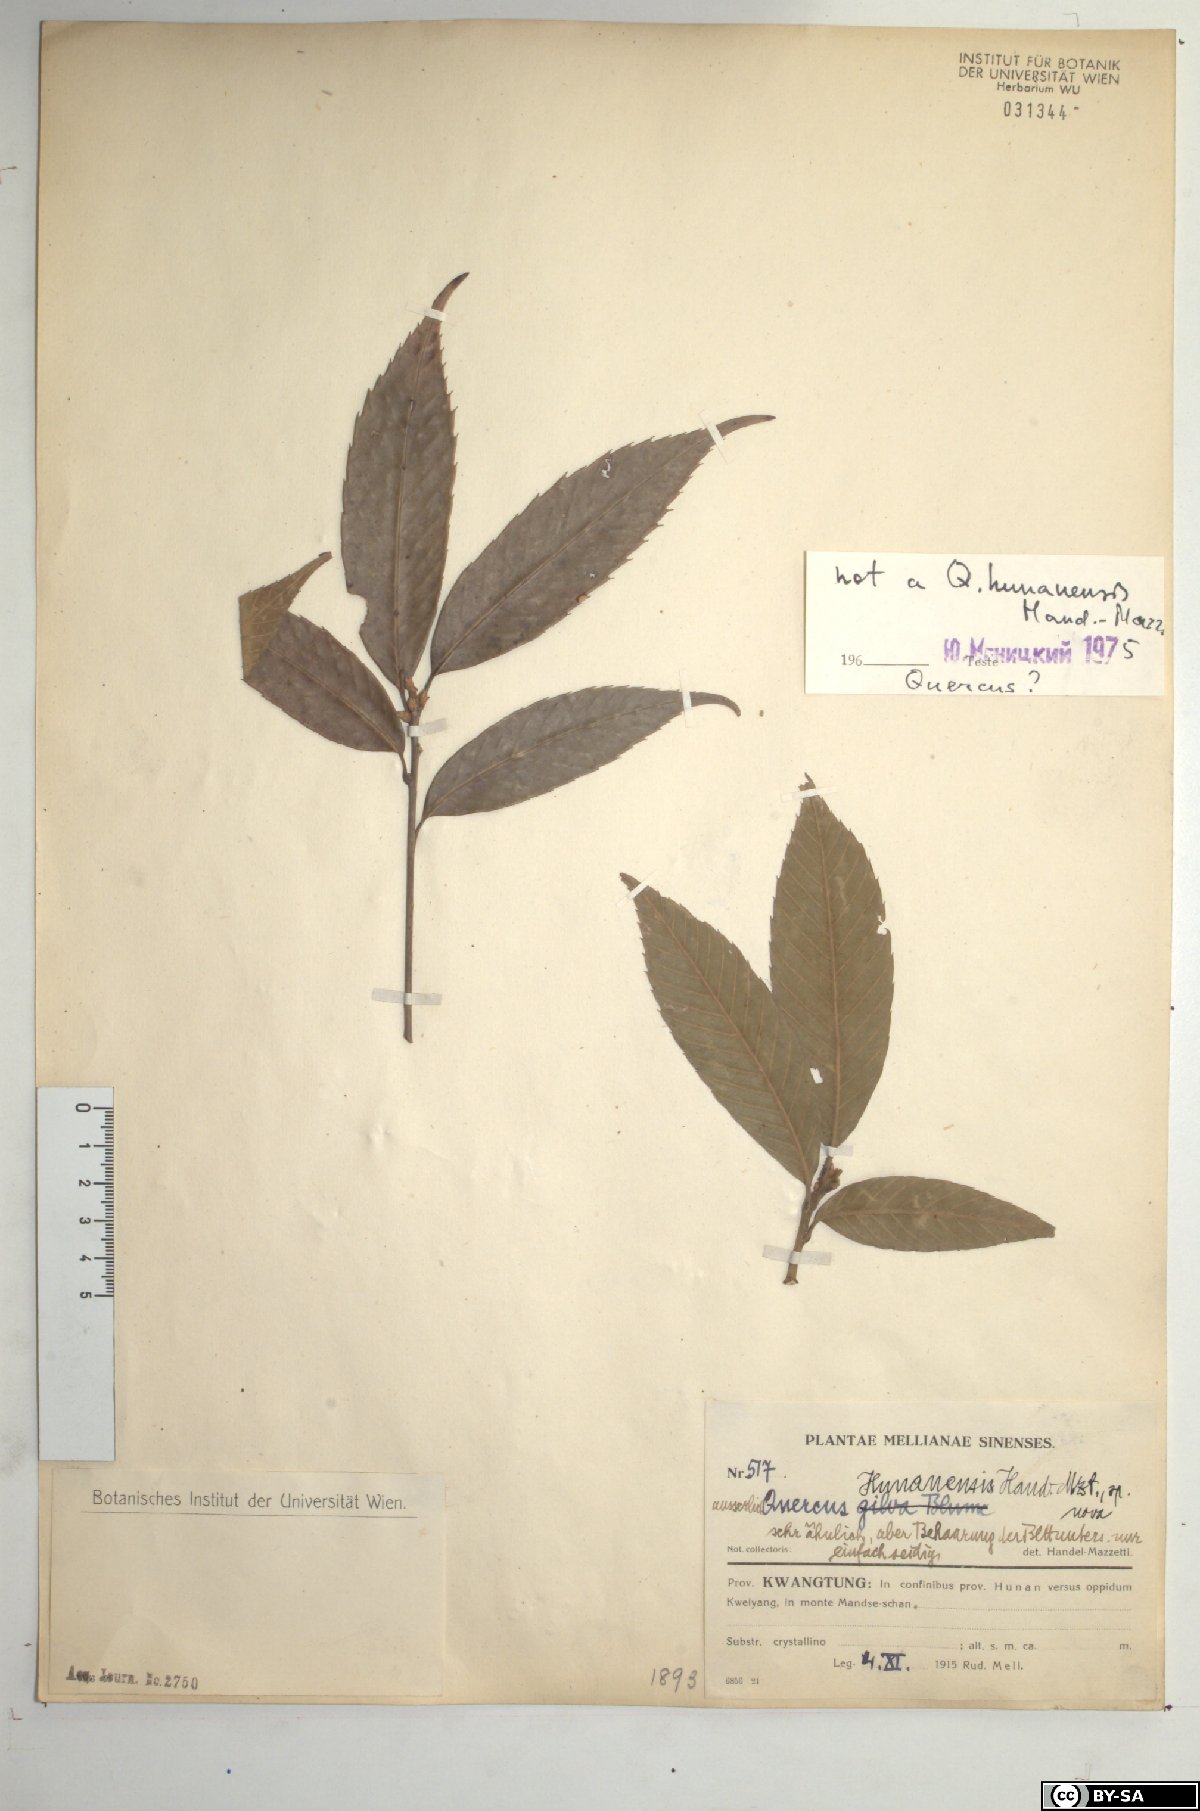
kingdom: Plantae
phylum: Tracheophyta
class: Magnoliopsida
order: Fagales
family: Fagaceae
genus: Quercus
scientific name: Quercus gilva
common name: Redbark oak
